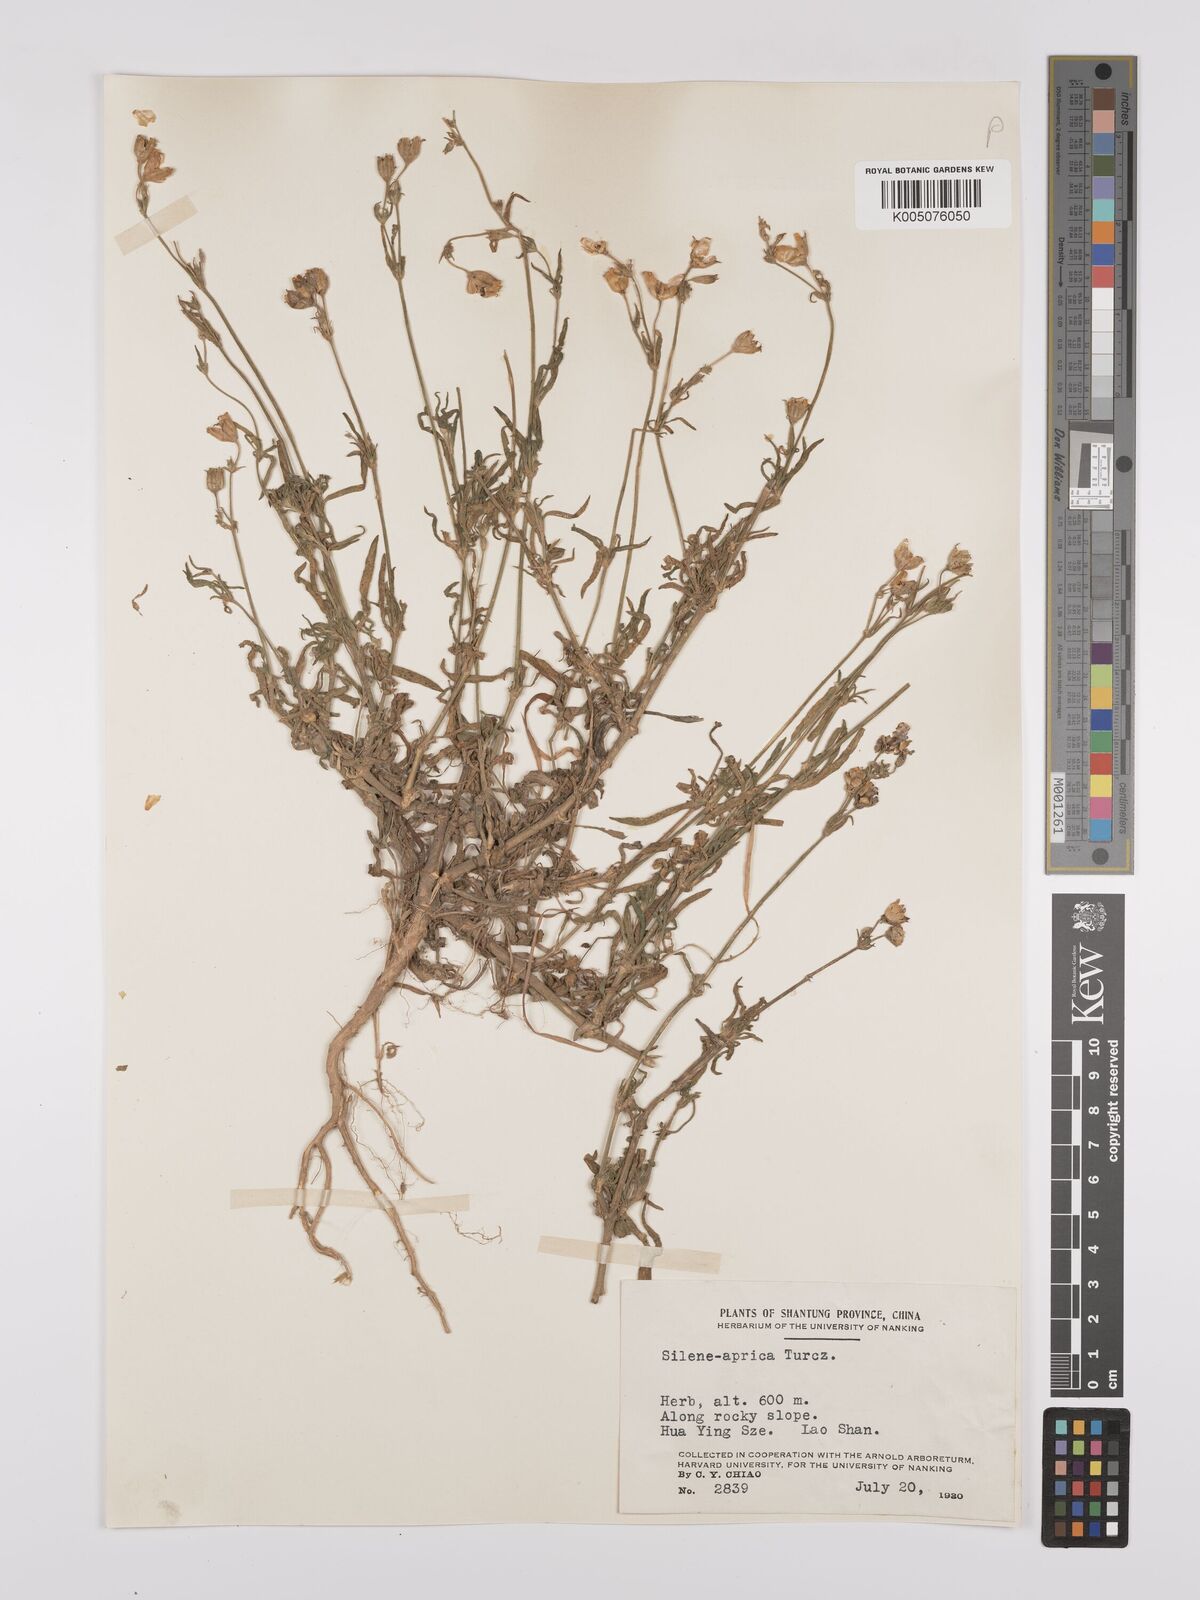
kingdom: Plantae
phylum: Tracheophyta
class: Magnoliopsida
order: Caryophyllales
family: Caryophyllaceae
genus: Silene
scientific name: Silene aprica
